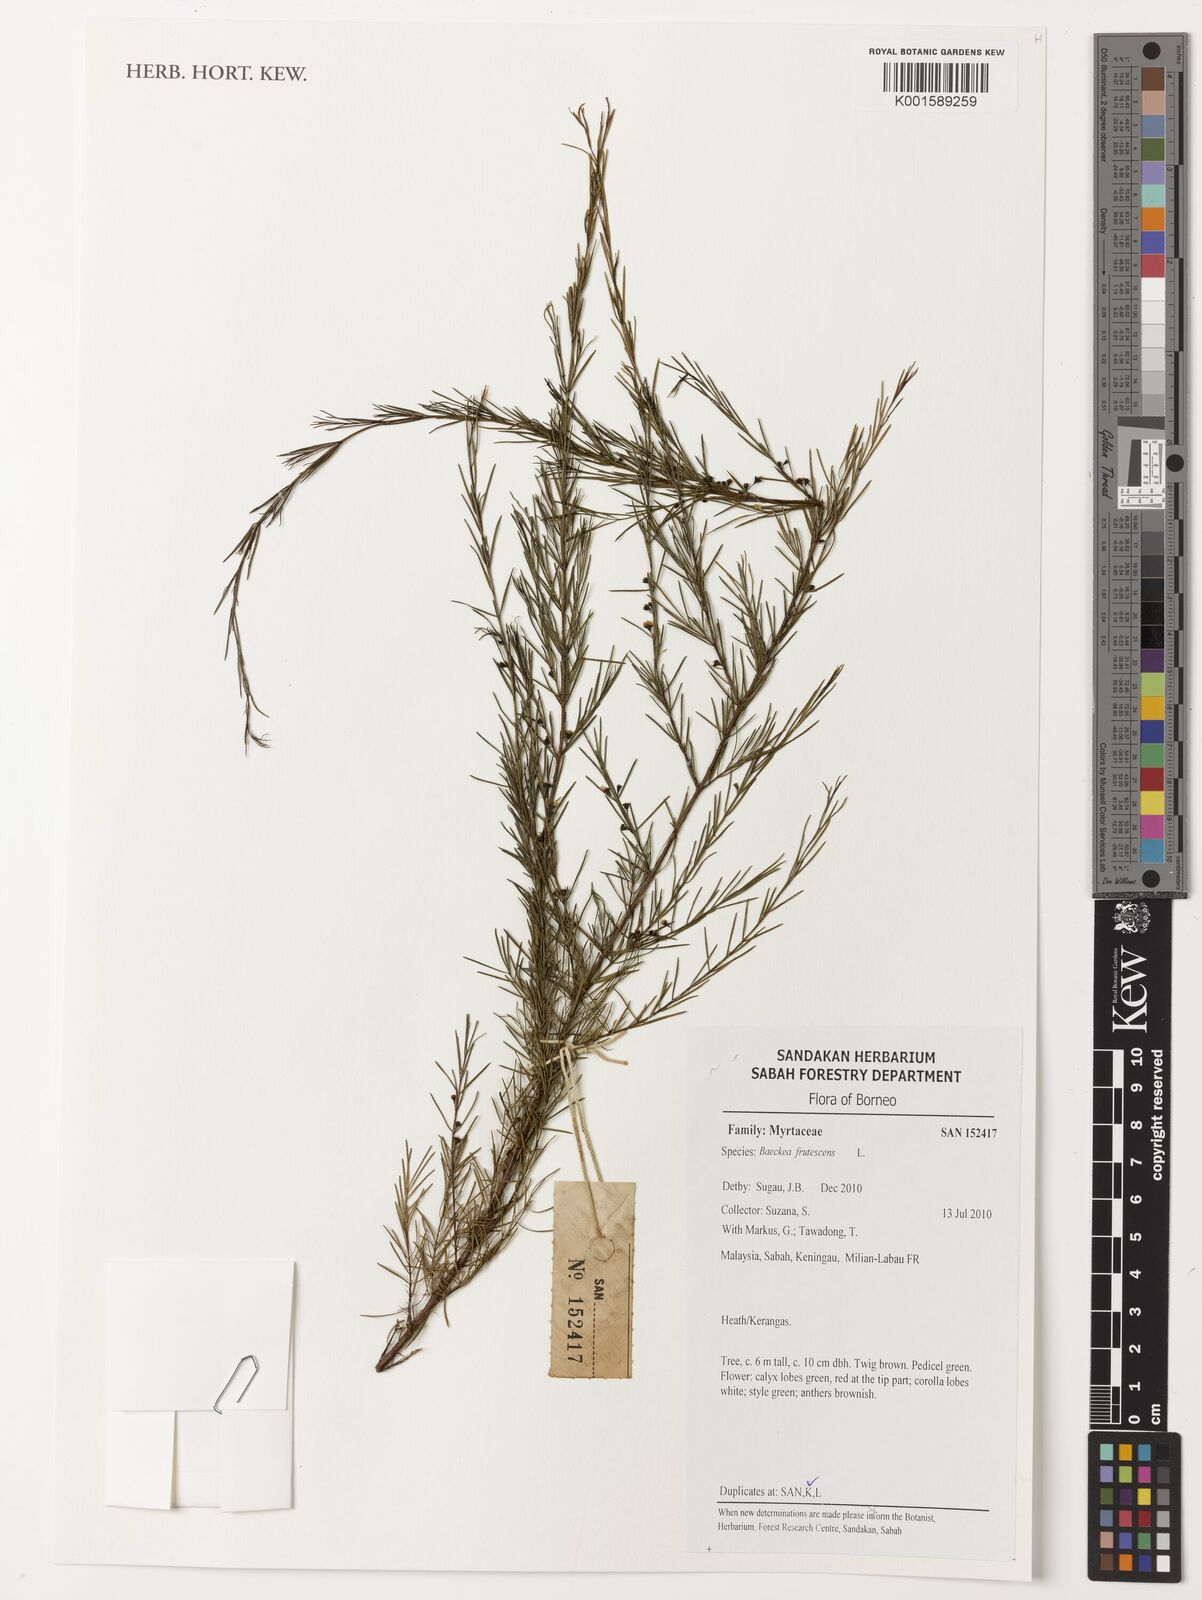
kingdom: Plantae
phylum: Tracheophyta
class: Magnoliopsida
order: Myrtales
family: Myrtaceae
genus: Baeckea
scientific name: Baeckea frutescens
